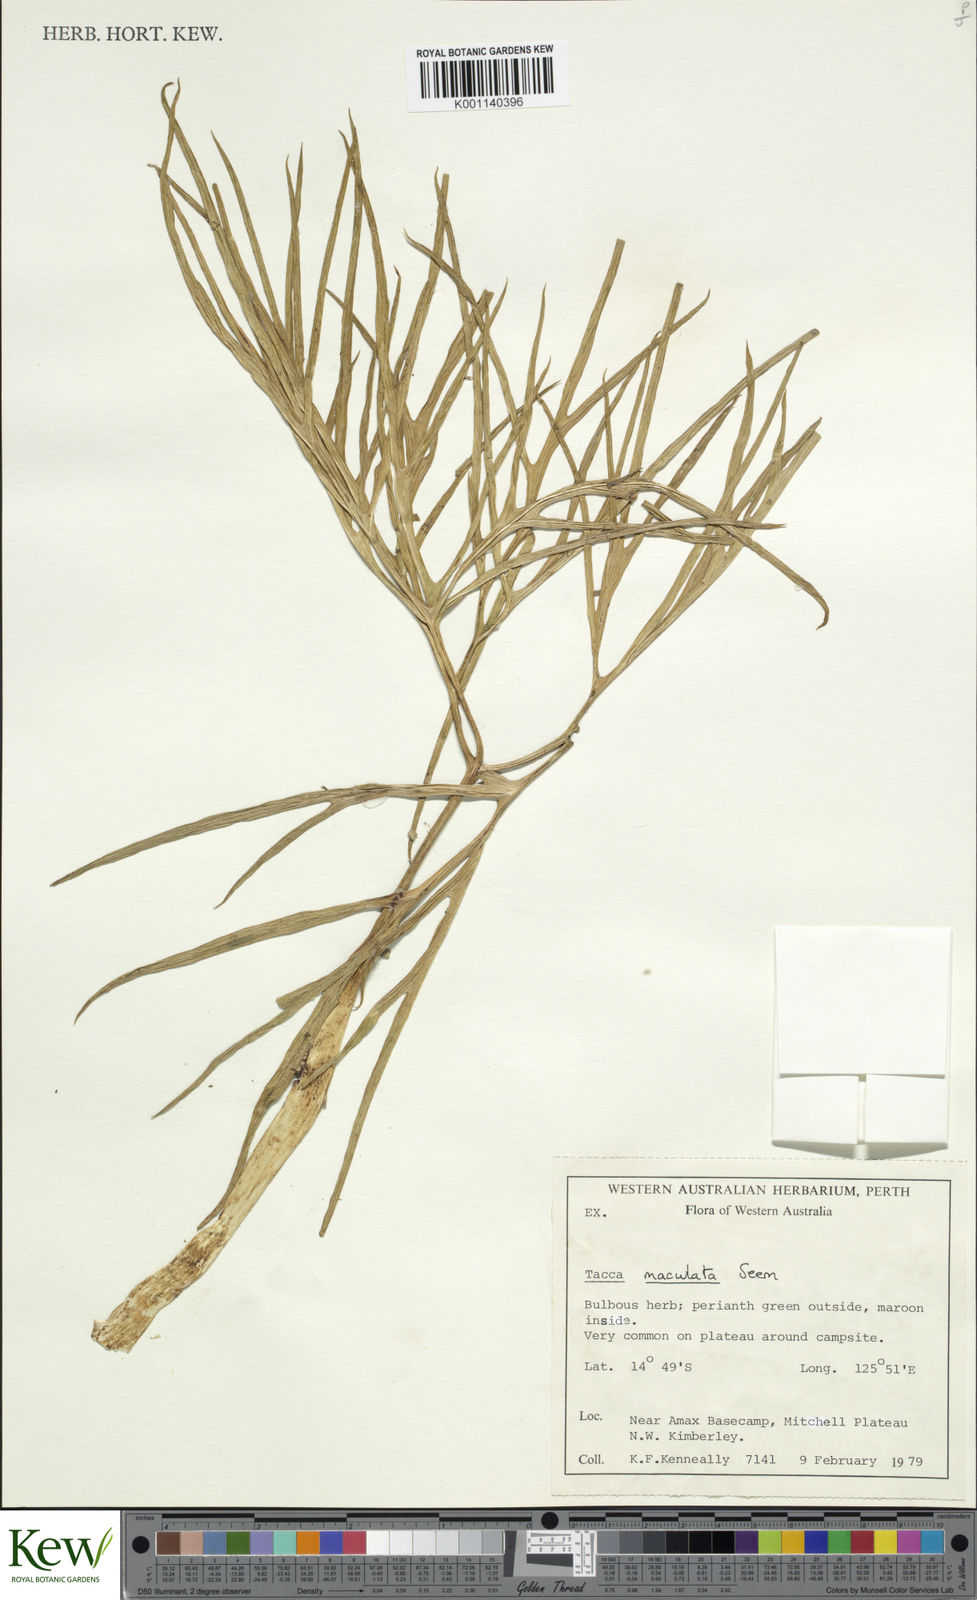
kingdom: Plantae
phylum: Tracheophyta
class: Liliopsida
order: Dioscoreales
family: Dioscoreaceae
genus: Tacca
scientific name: Tacca leontopetaloides
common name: Arrowroot
